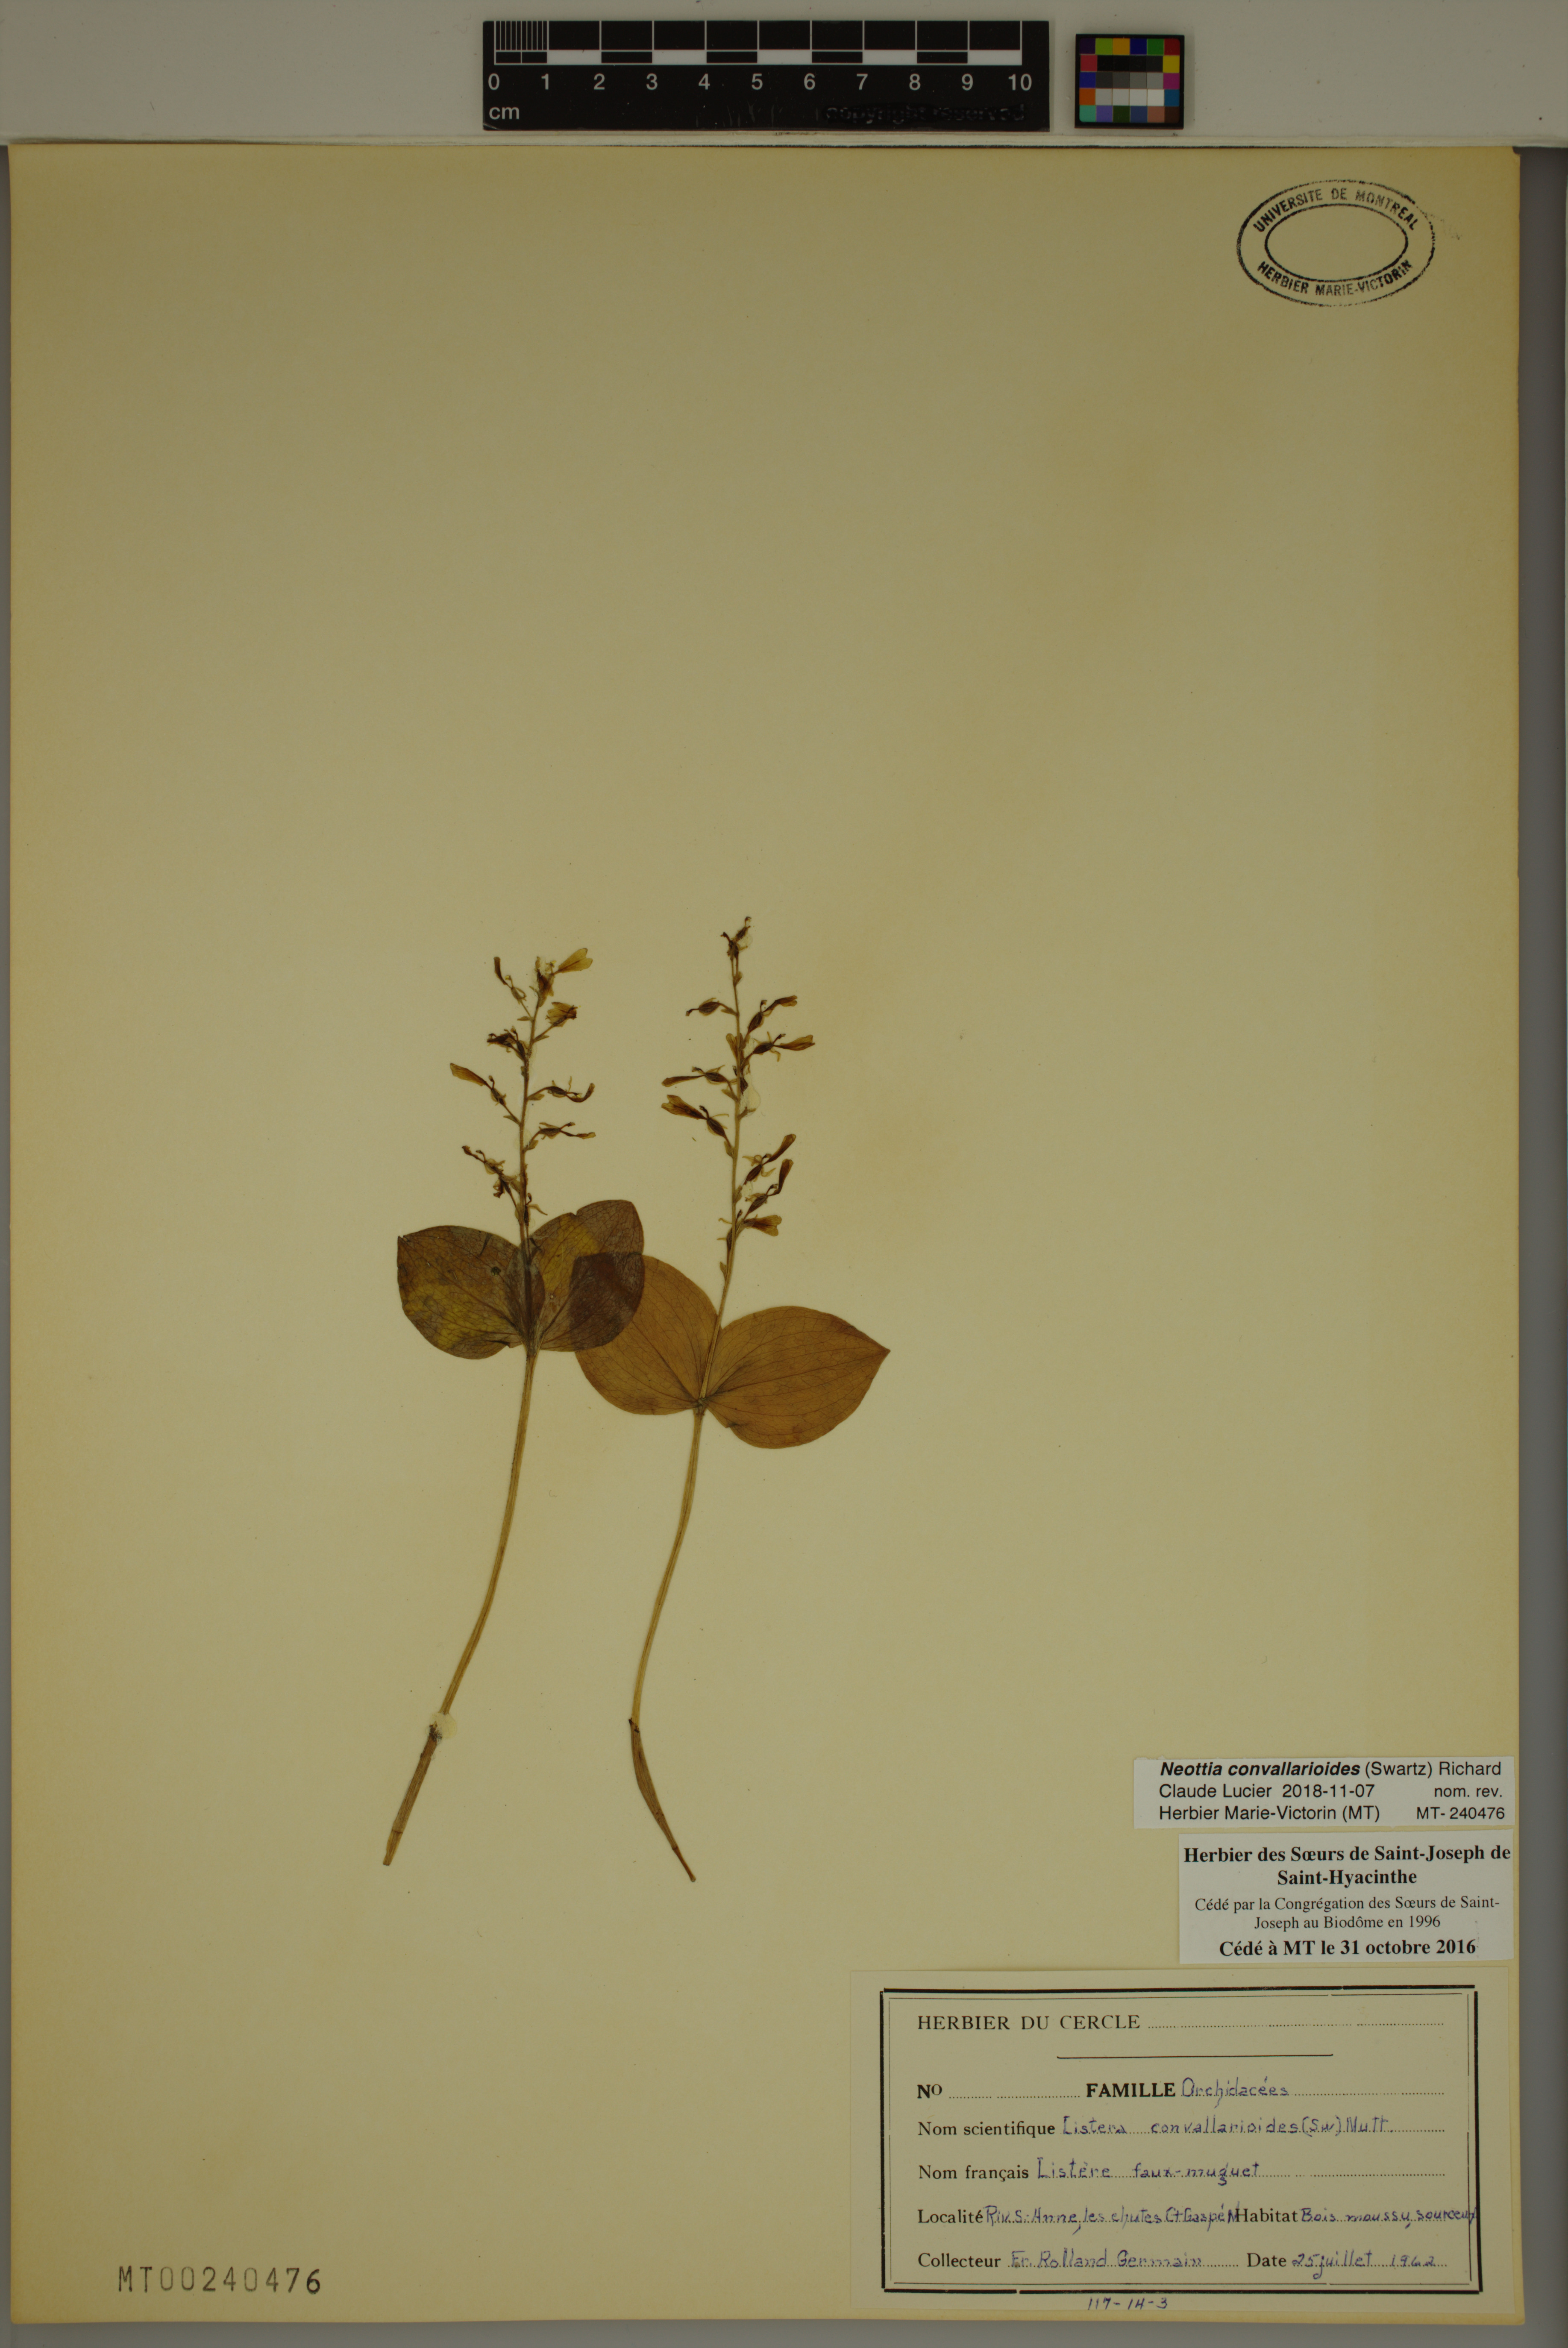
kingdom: Plantae
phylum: Tracheophyta
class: Liliopsida
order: Asparagales
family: Orchidaceae
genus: Neottia
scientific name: Neottia convallarioides
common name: Broadleaf twayblade
